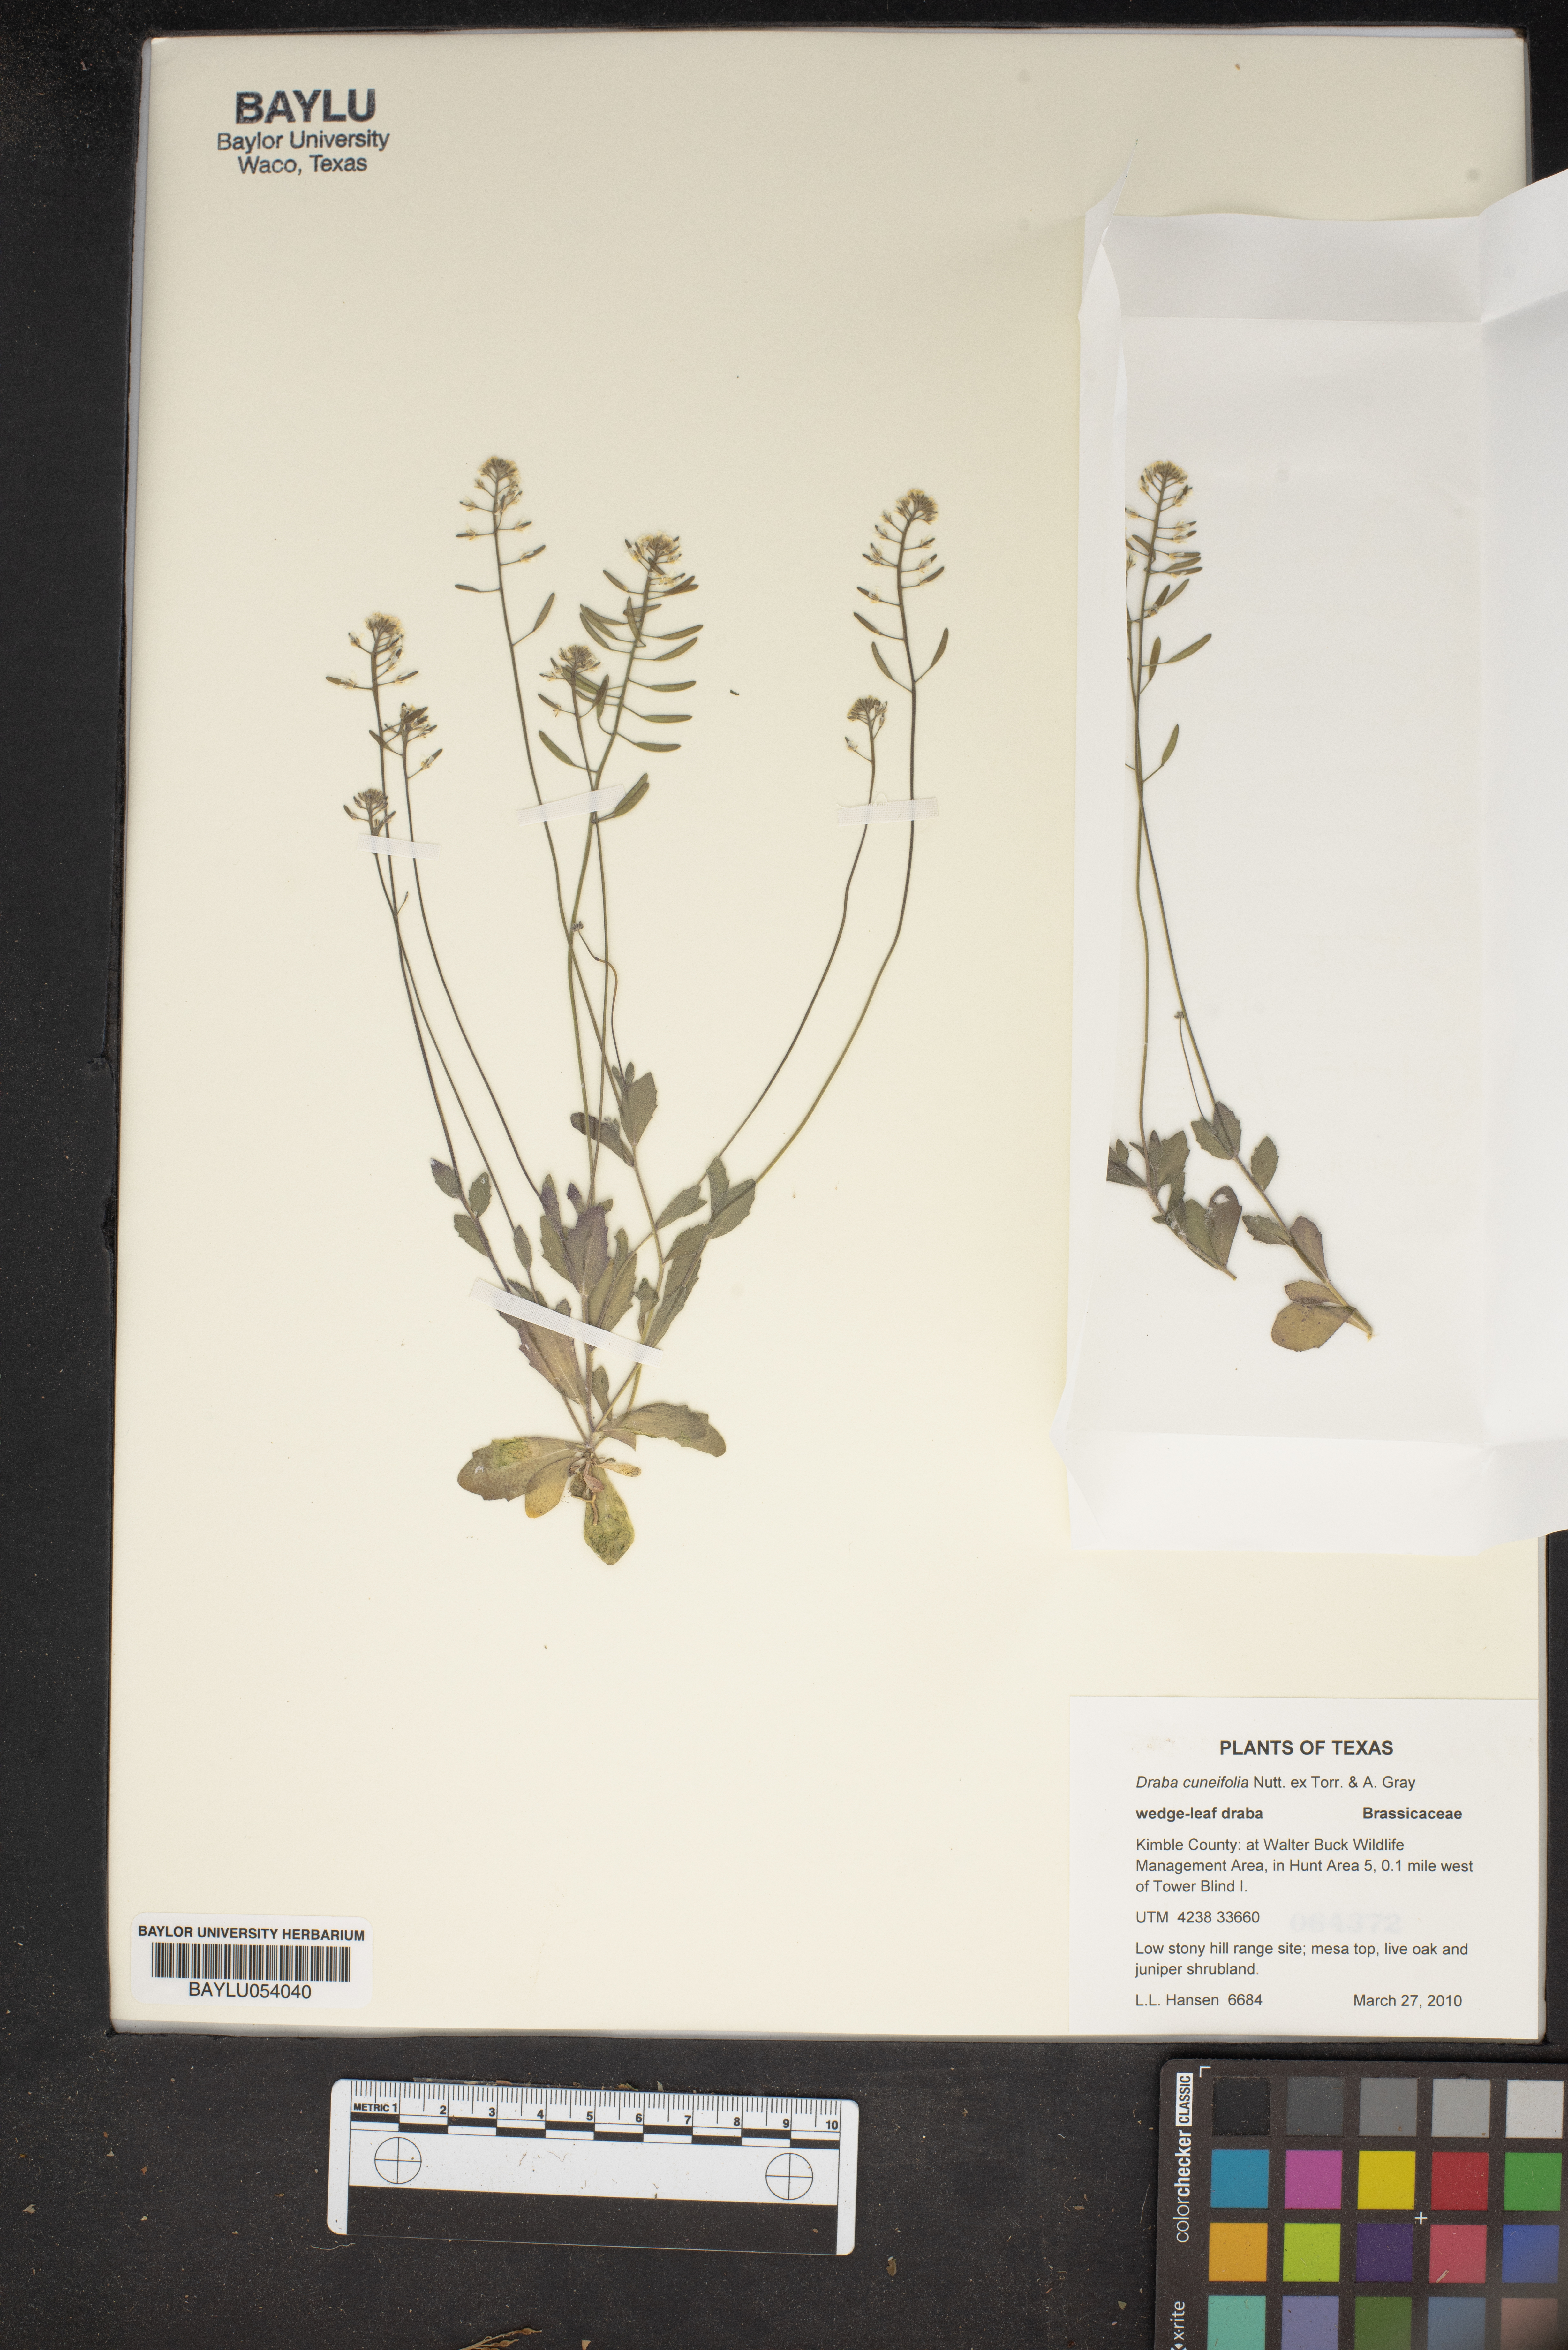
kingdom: Plantae
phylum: Tracheophyta
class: Magnoliopsida
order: Brassicales
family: Brassicaceae
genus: Tomostima
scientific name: Tomostima cuneifolia
